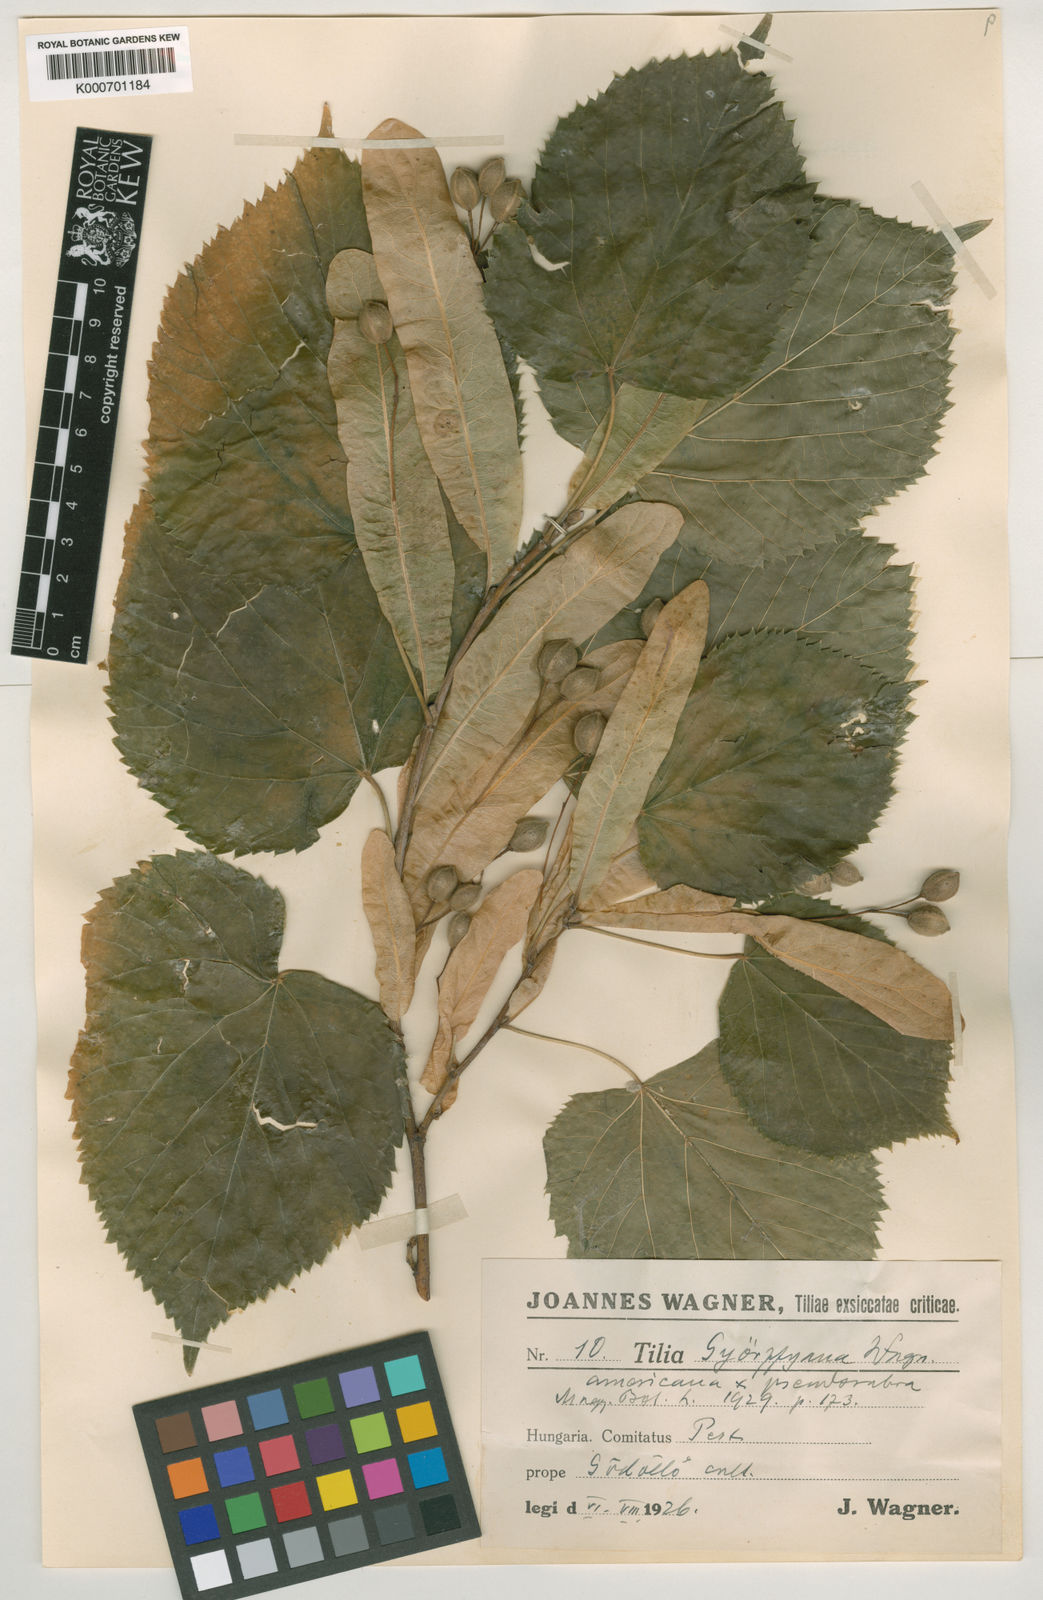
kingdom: Plantae
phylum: Tracheophyta
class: Magnoliopsida
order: Malvales
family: Malvaceae
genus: Tilia
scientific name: Tilia
